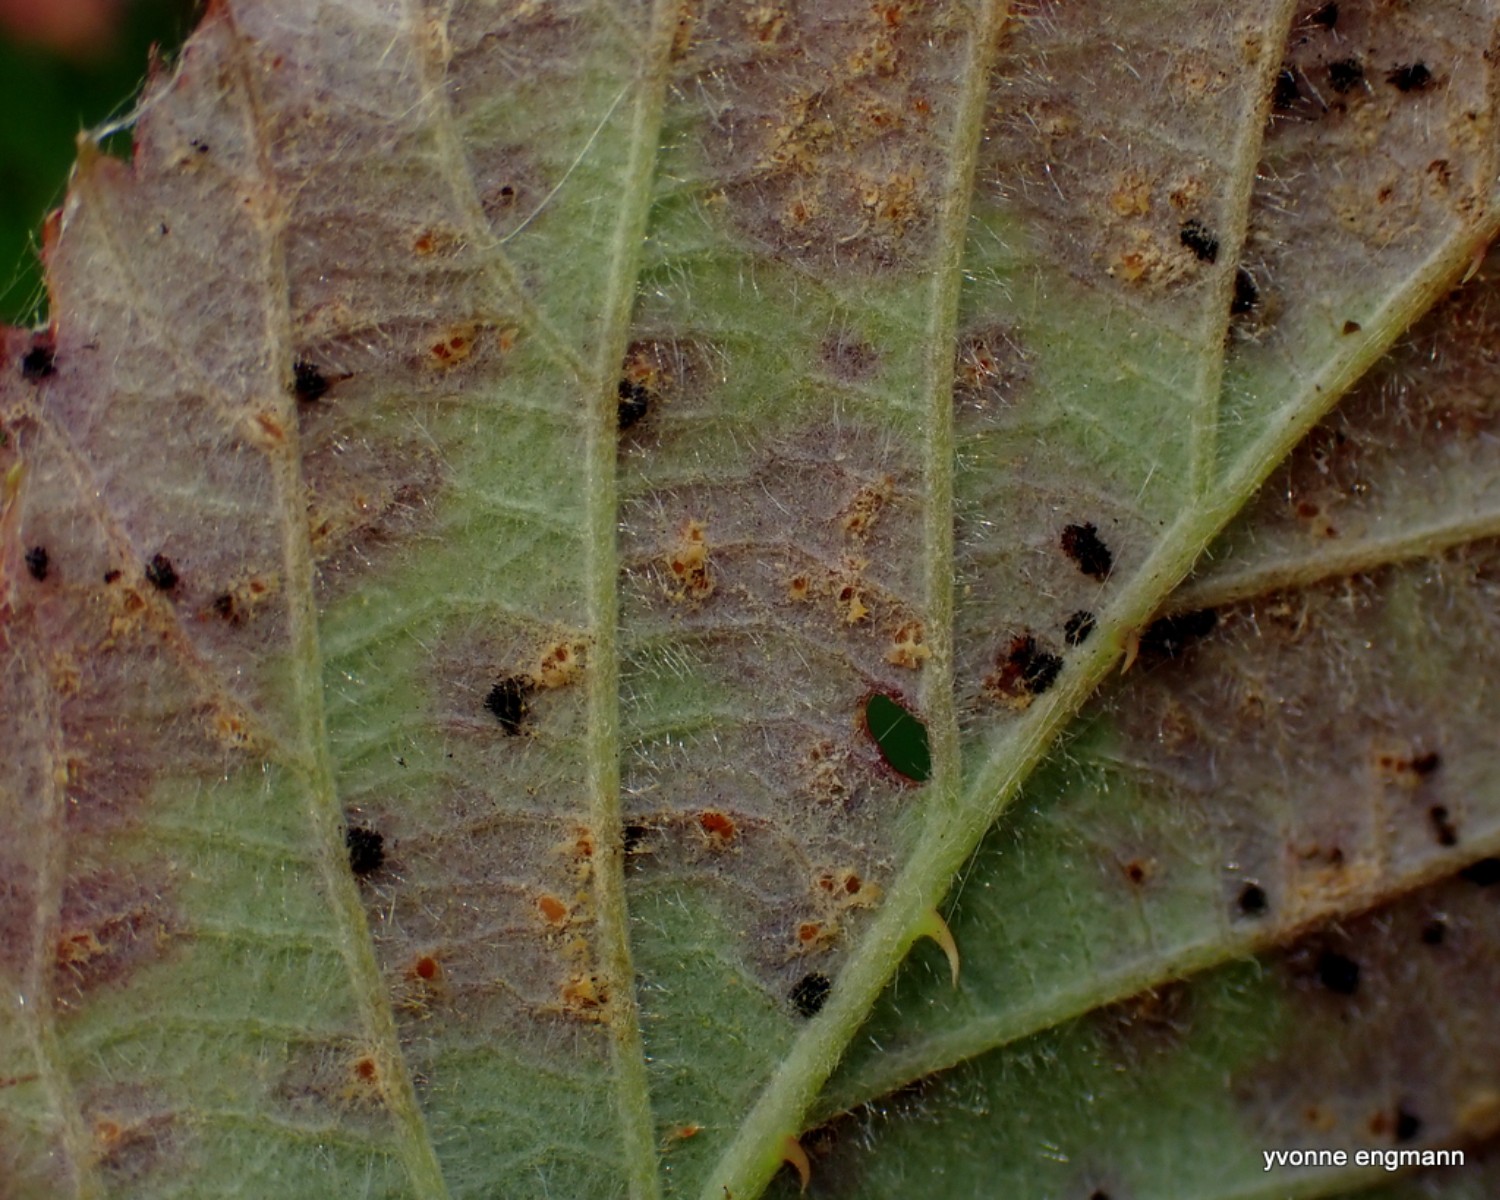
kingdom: Fungi
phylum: Basidiomycota
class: Pucciniomycetes
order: Pucciniales
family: Phragmidiaceae
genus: Phragmidium
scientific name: Phragmidium violaceum
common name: violet flercellerust
